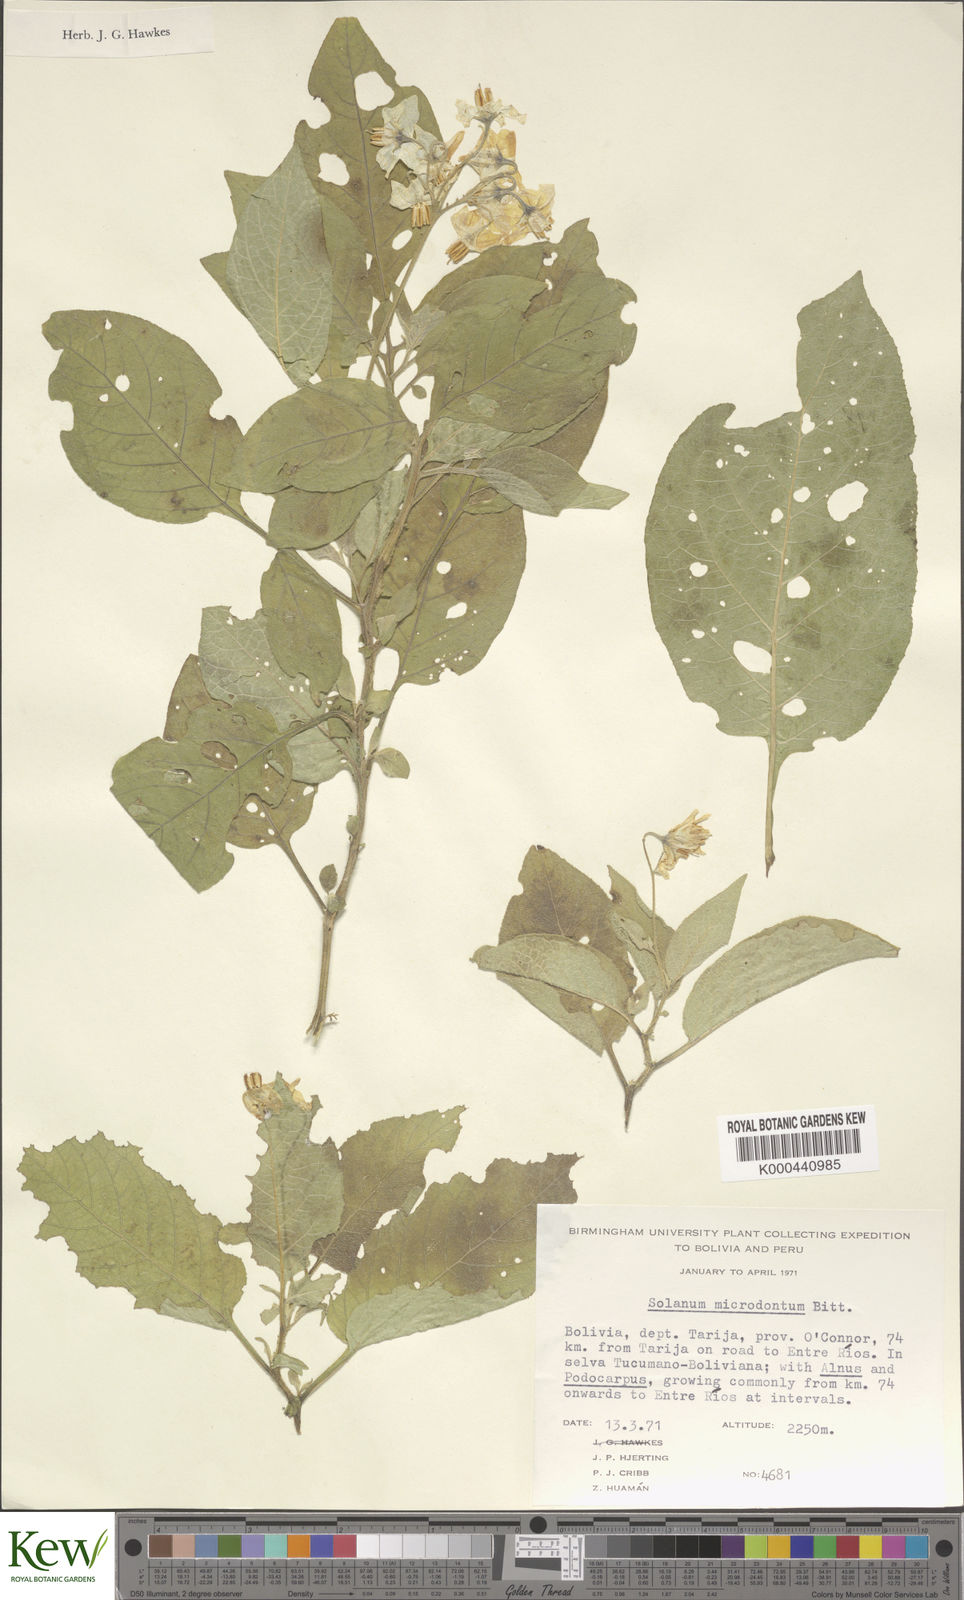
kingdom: Plantae
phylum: Tracheophyta
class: Magnoliopsida
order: Solanales
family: Solanaceae
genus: Solanum
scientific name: Solanum microdontum
